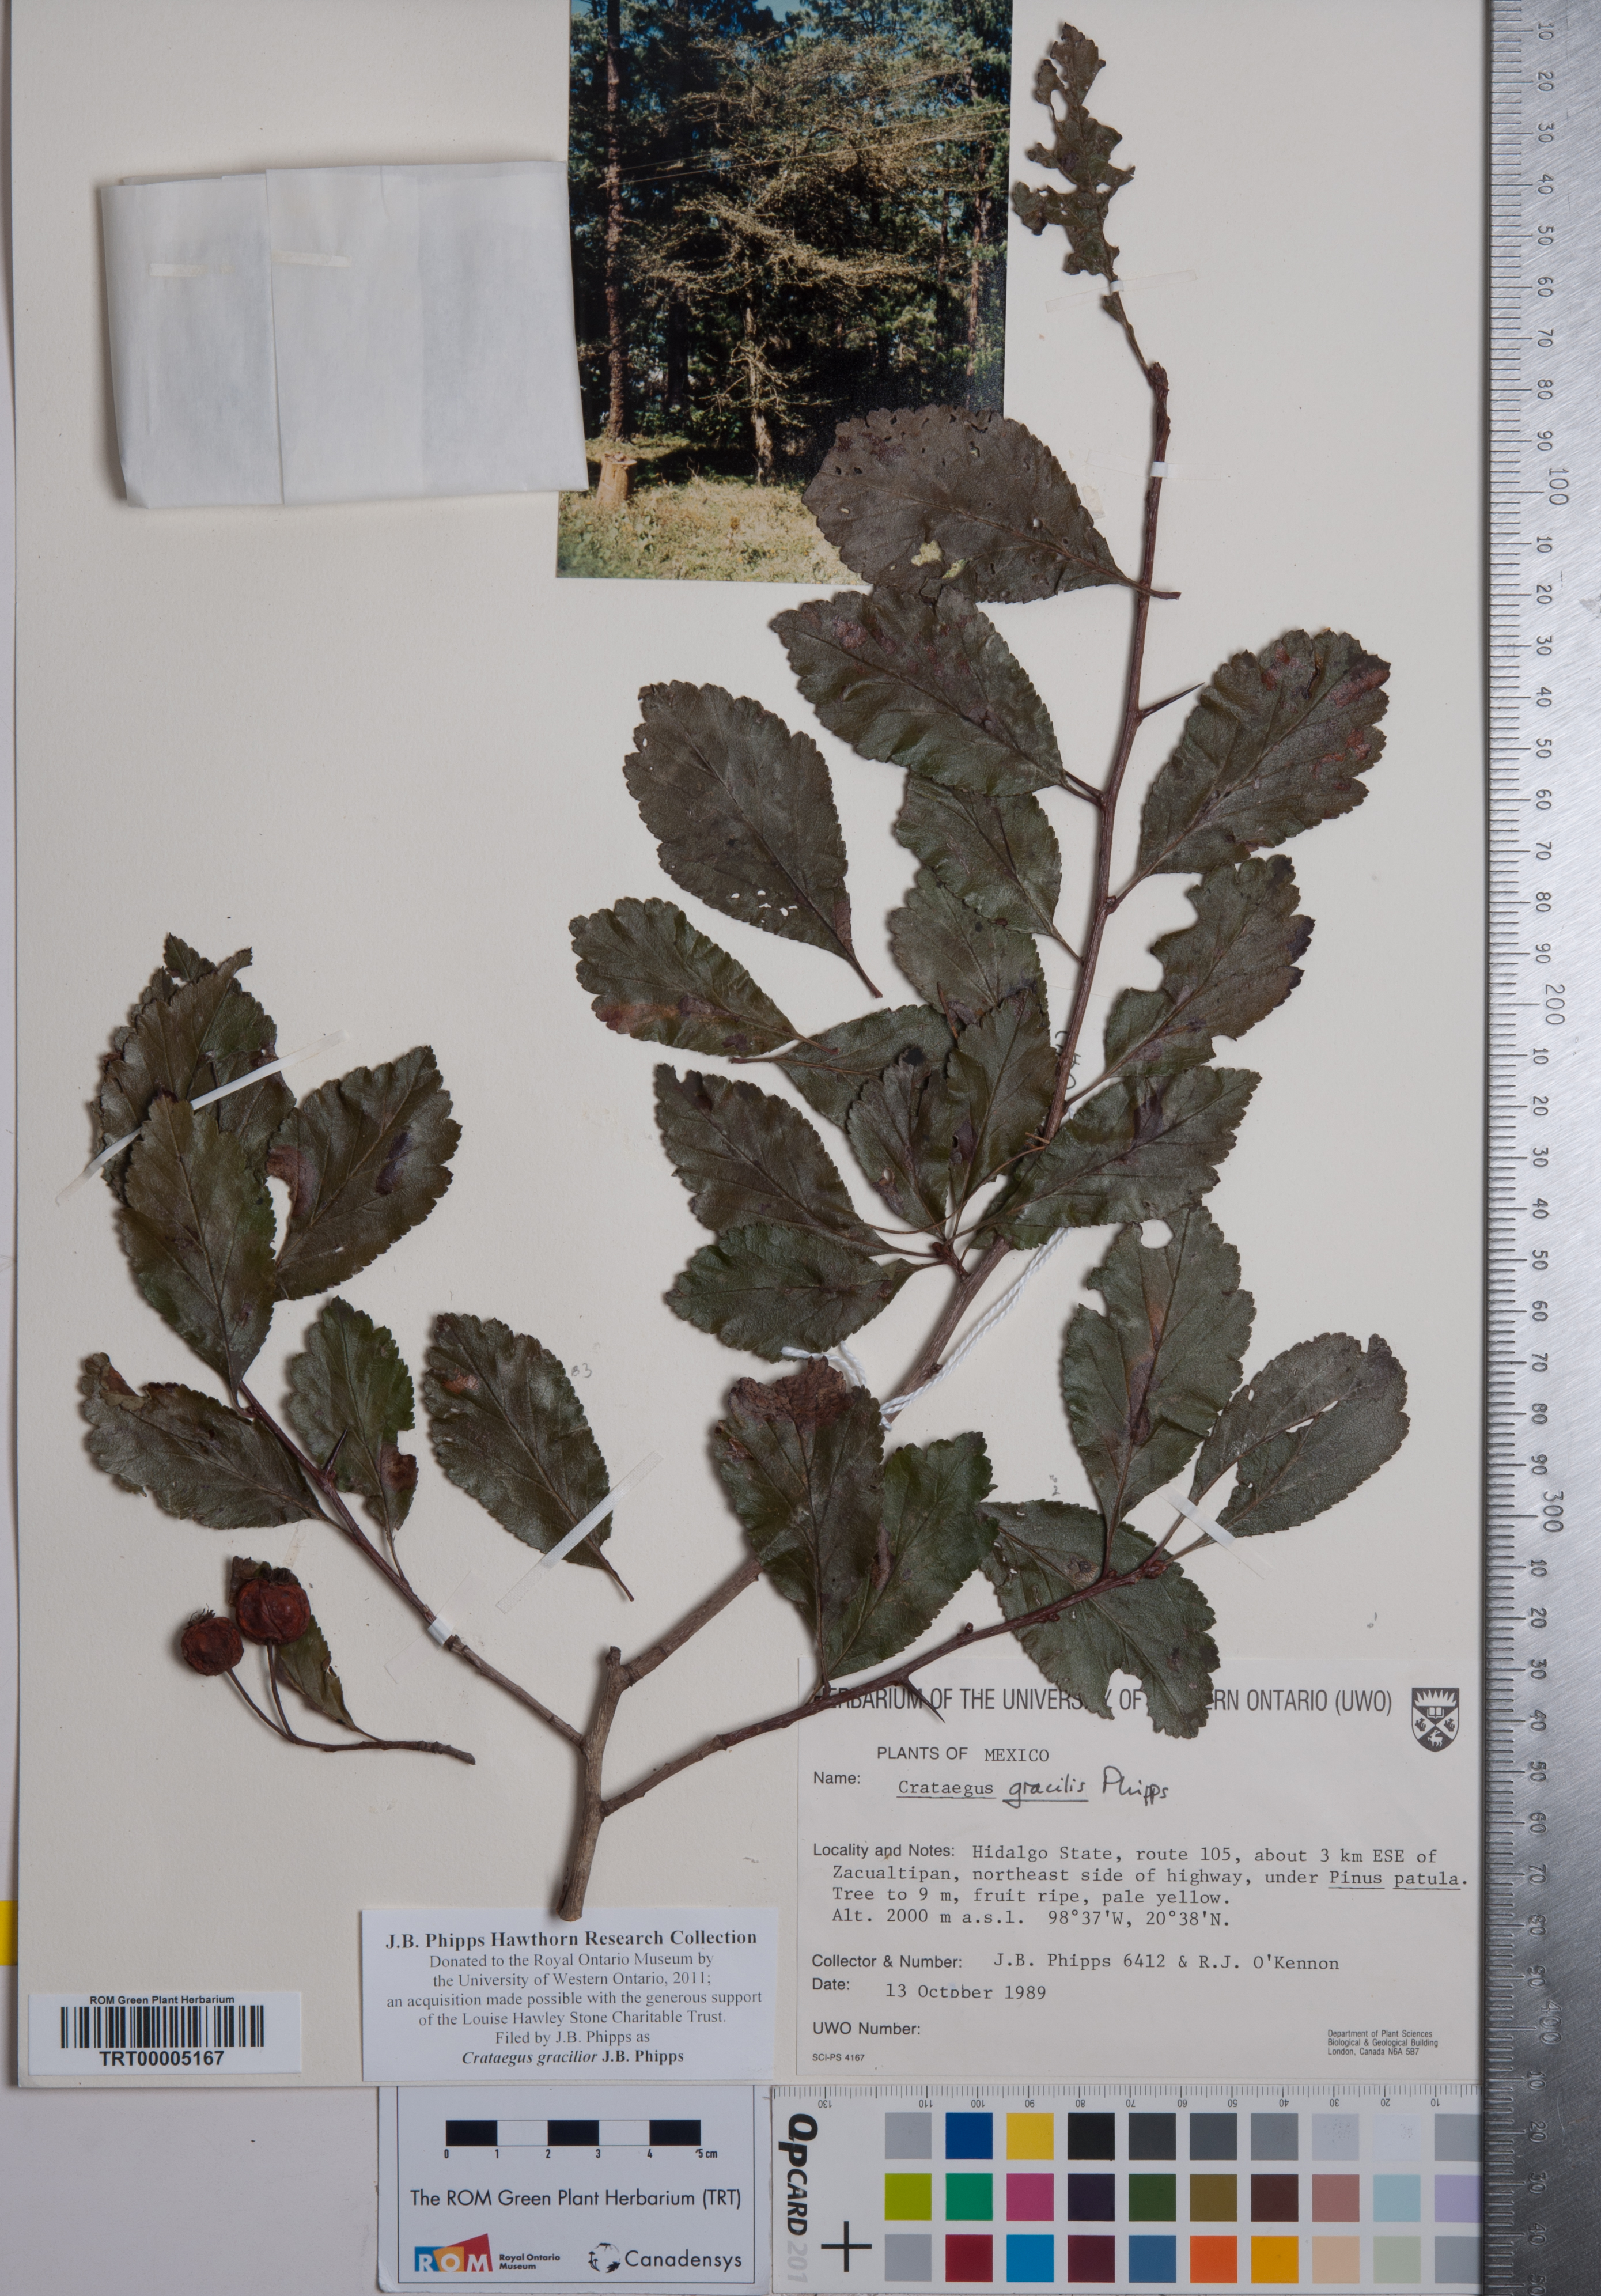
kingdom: Plantae
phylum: Tracheophyta
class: Magnoliopsida
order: Rosales
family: Rosaceae
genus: Crataegus
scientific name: Crataegus gracilior
